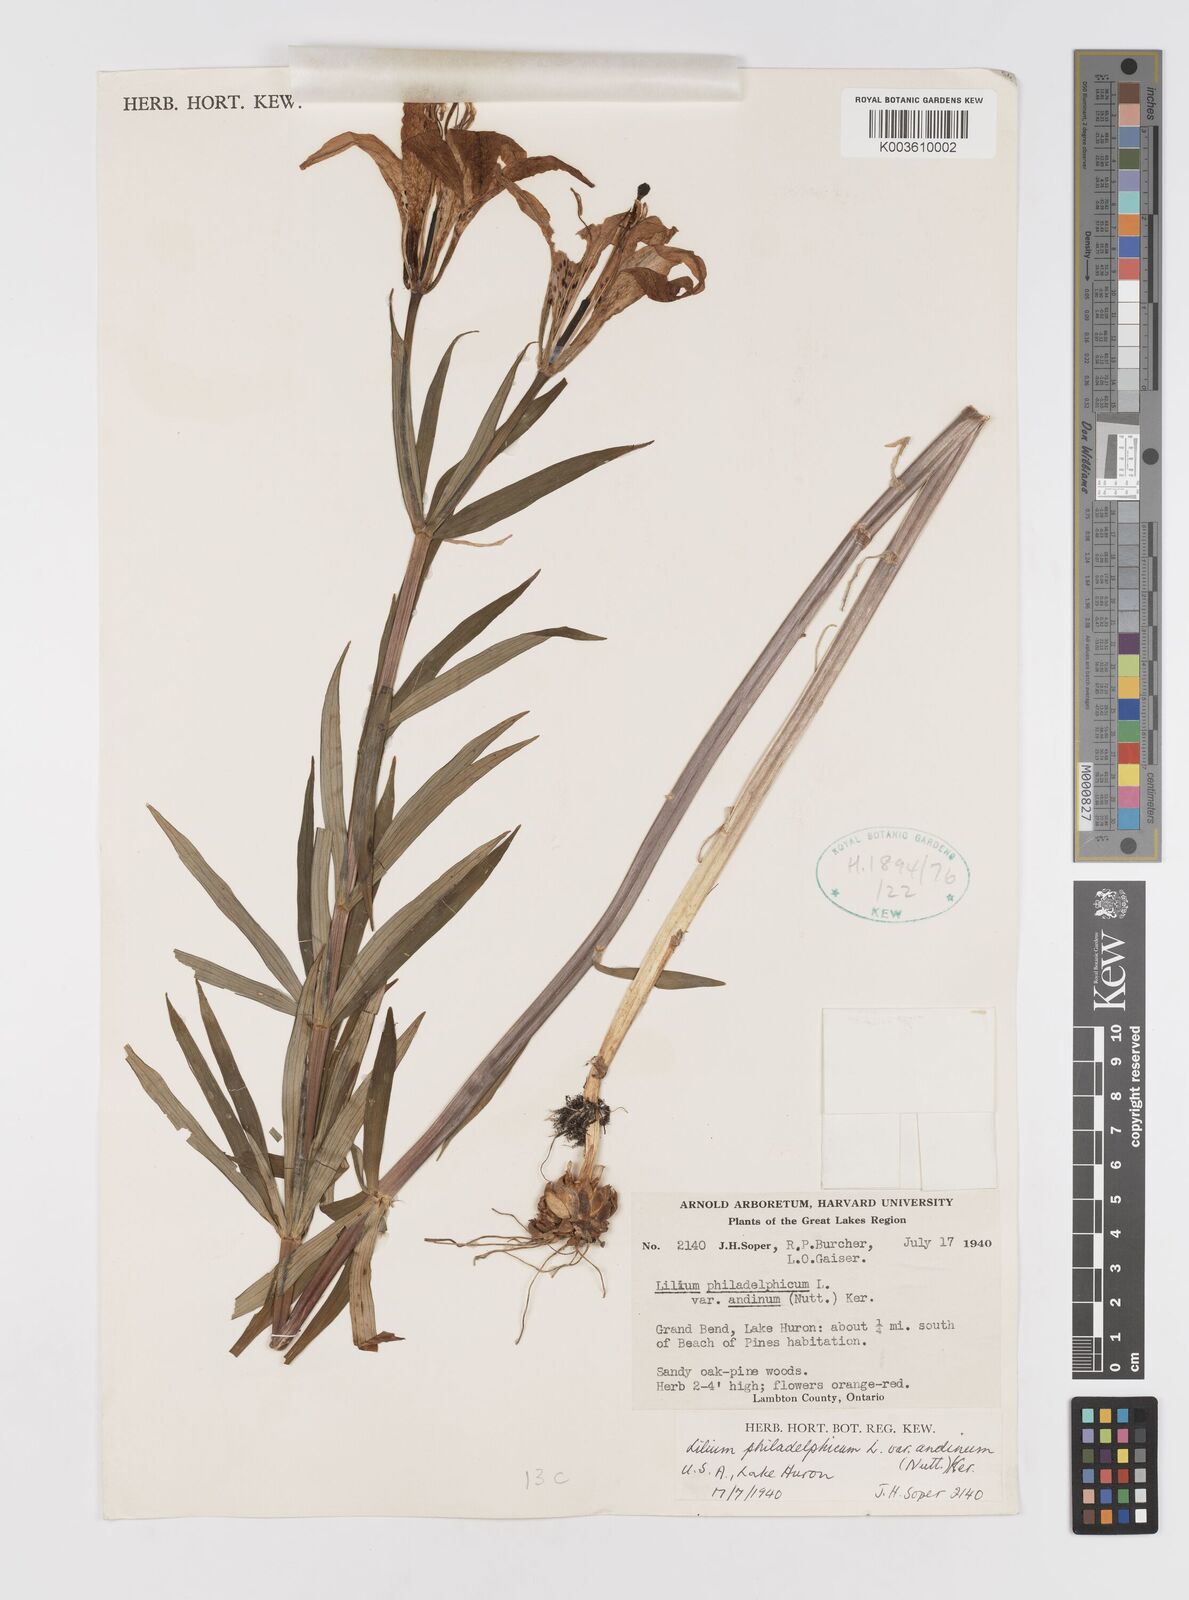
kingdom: Plantae
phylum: Tracheophyta
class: Liliopsida
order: Liliales
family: Liliaceae
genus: Lilium
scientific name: Lilium philadelphicum
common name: Red lily
